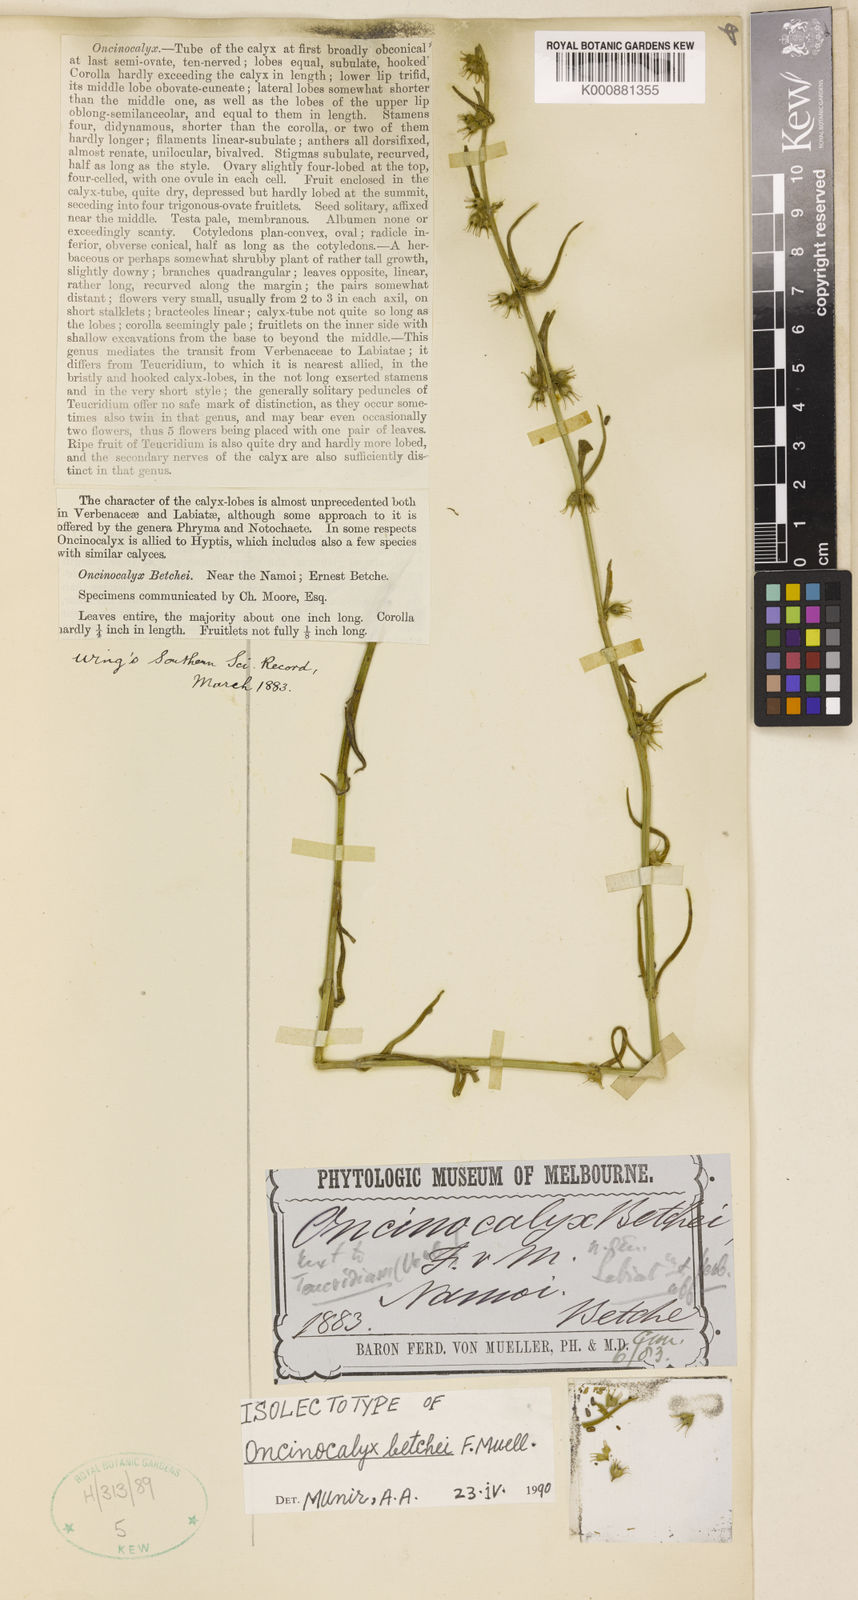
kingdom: Plantae
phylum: Tracheophyta
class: Magnoliopsida
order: Lamiales
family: Lamiaceae
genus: Teucrium
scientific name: Teucrium betchei
